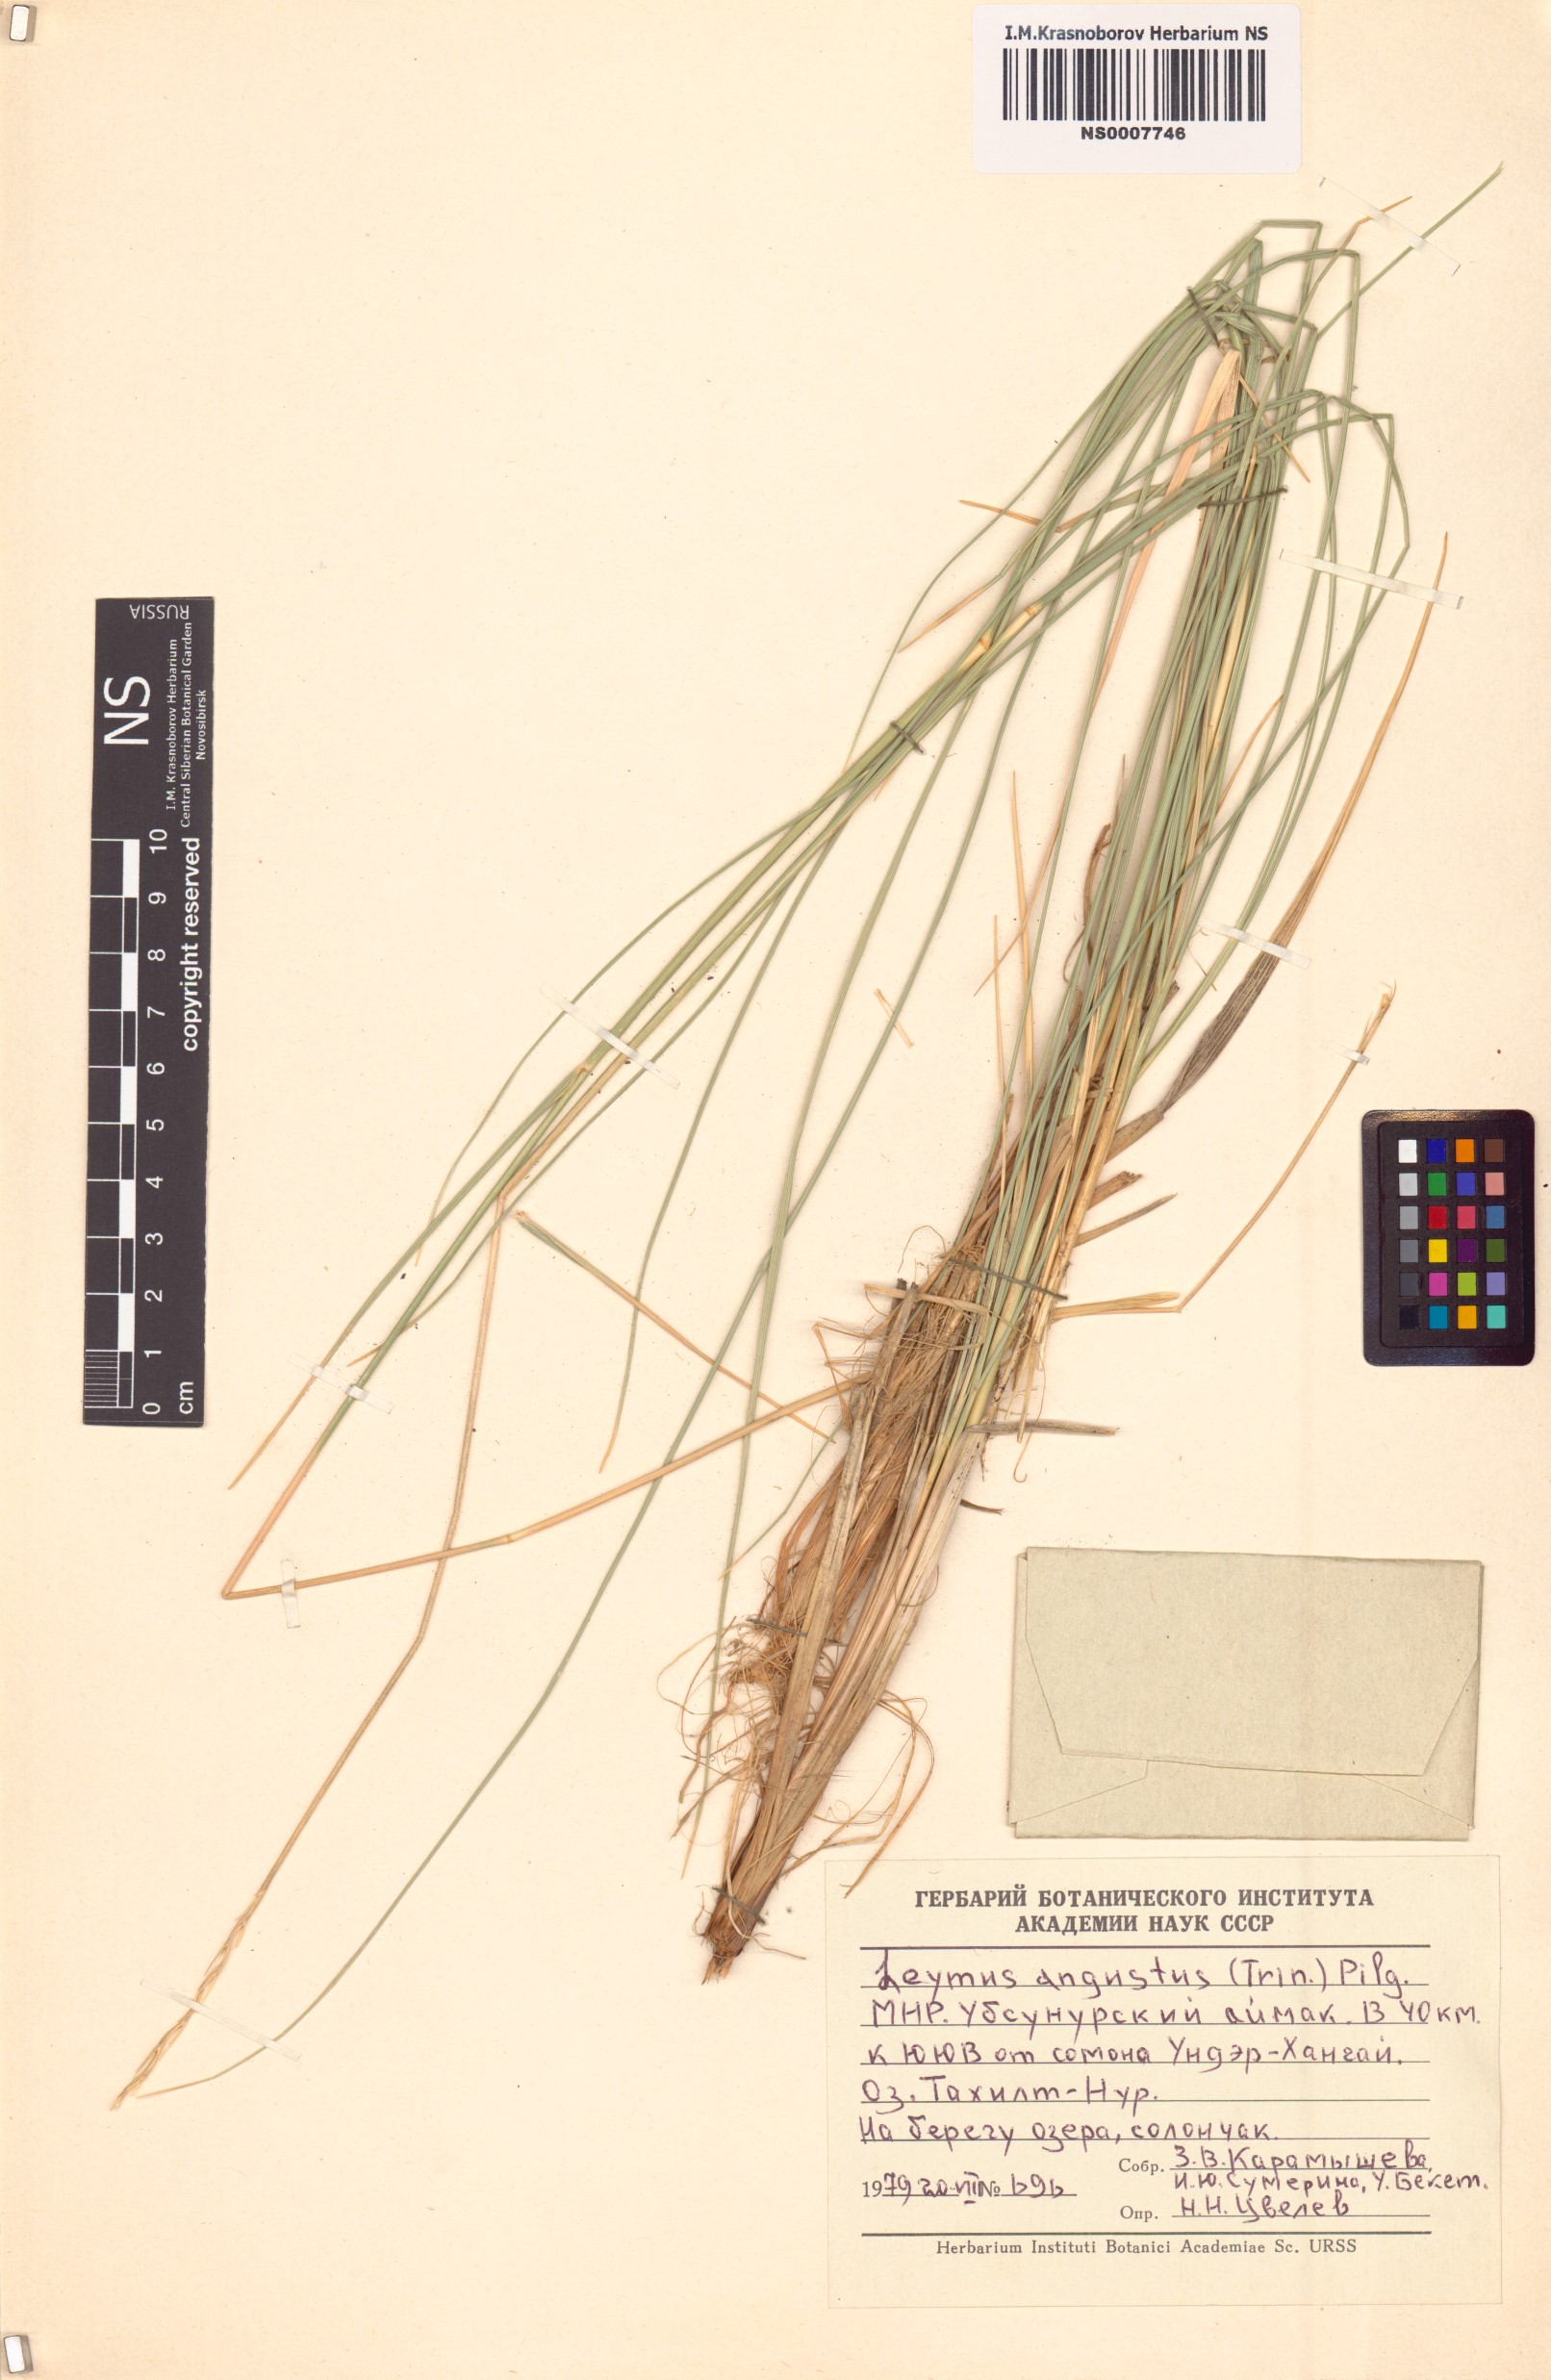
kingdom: Plantae
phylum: Tracheophyta
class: Liliopsida
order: Poales
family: Poaceae
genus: Leymus
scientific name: Leymus angustus
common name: Altai wildrye
